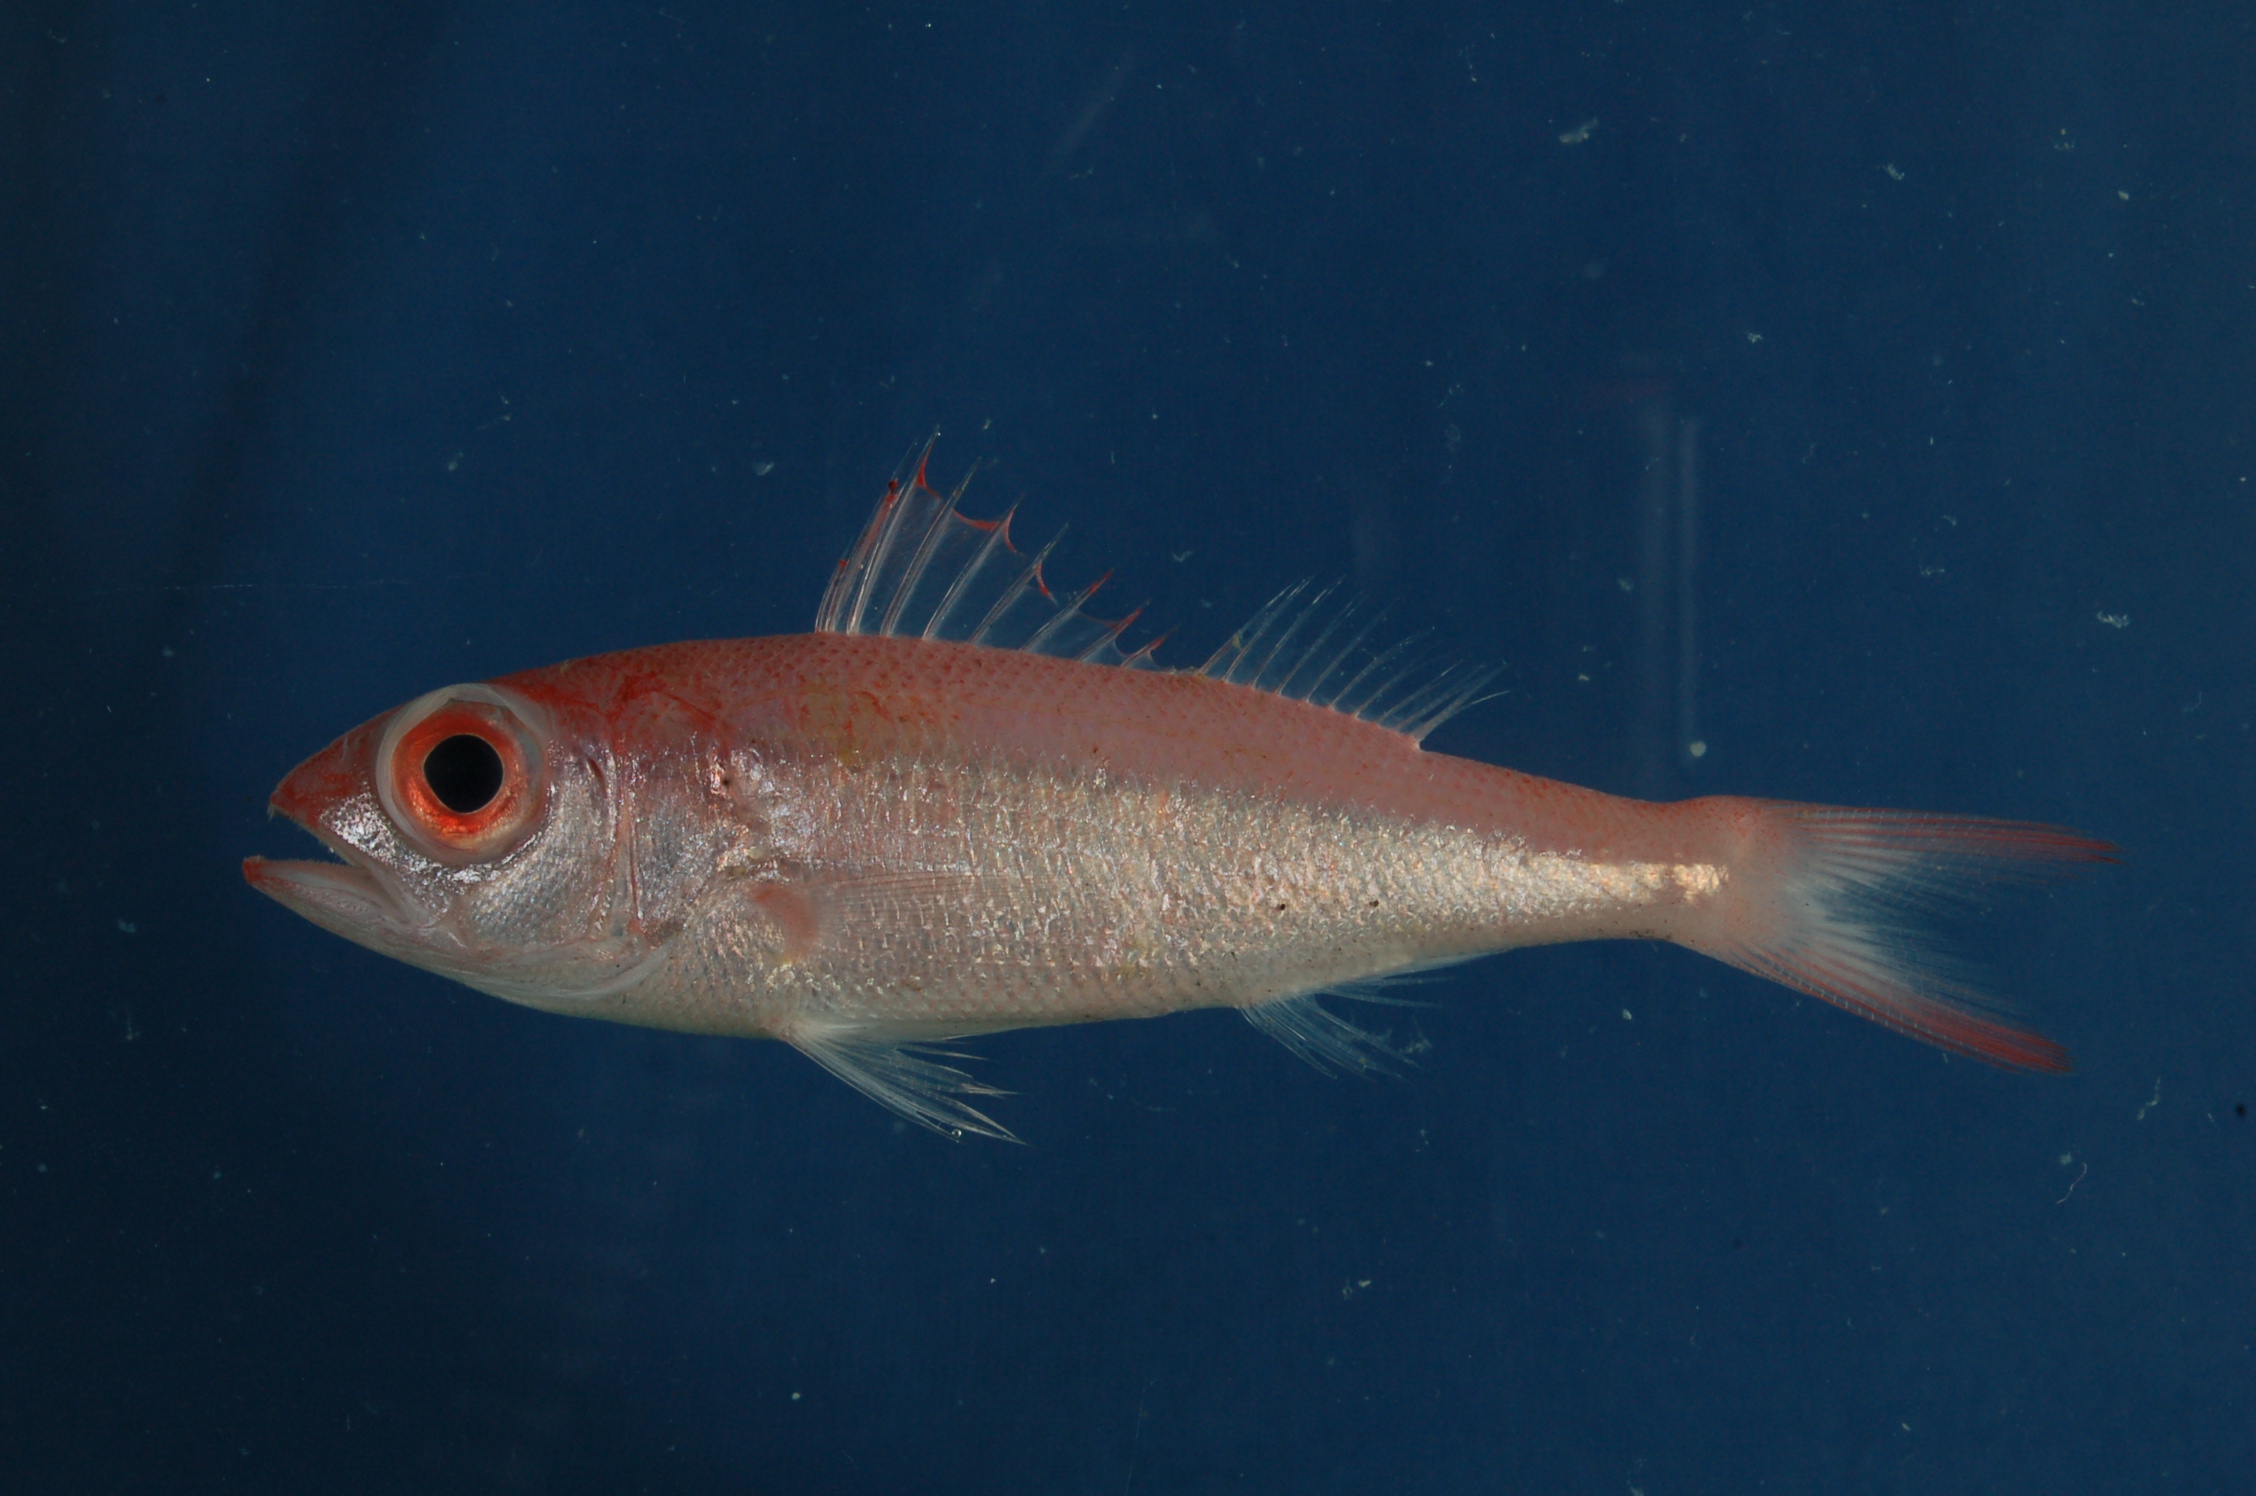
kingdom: Animalia
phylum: Chordata
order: Perciformes
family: Lutjanidae
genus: Etelis
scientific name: Etelis carbunculus
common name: Deepwater red snapper
